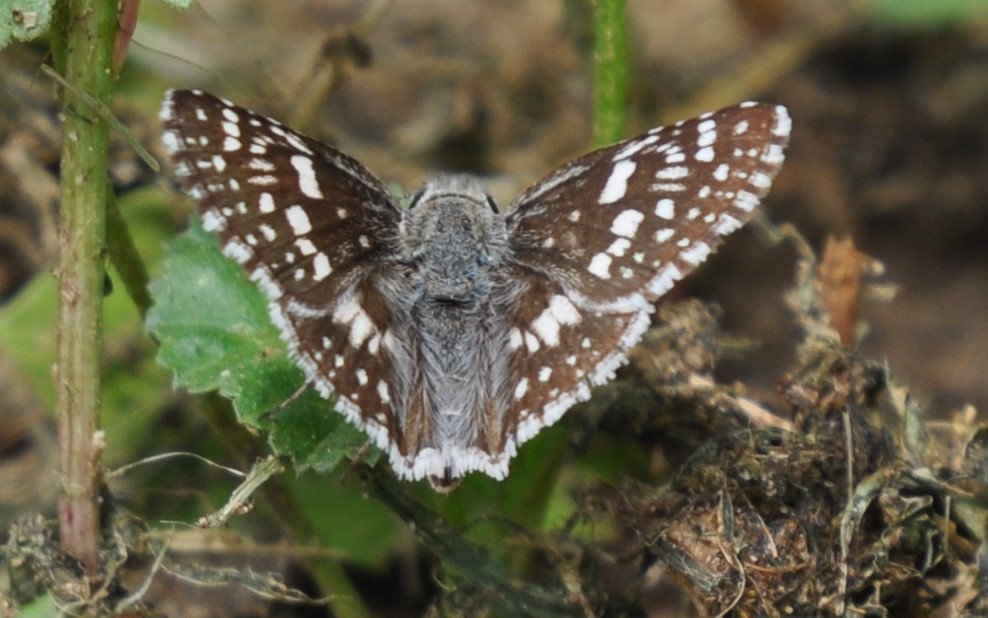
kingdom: Animalia
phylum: Arthropoda
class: Insecta
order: Lepidoptera
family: Hesperiidae
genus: Pyrgus
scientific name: Pyrgus communis
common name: Common Checkered-Skipper
